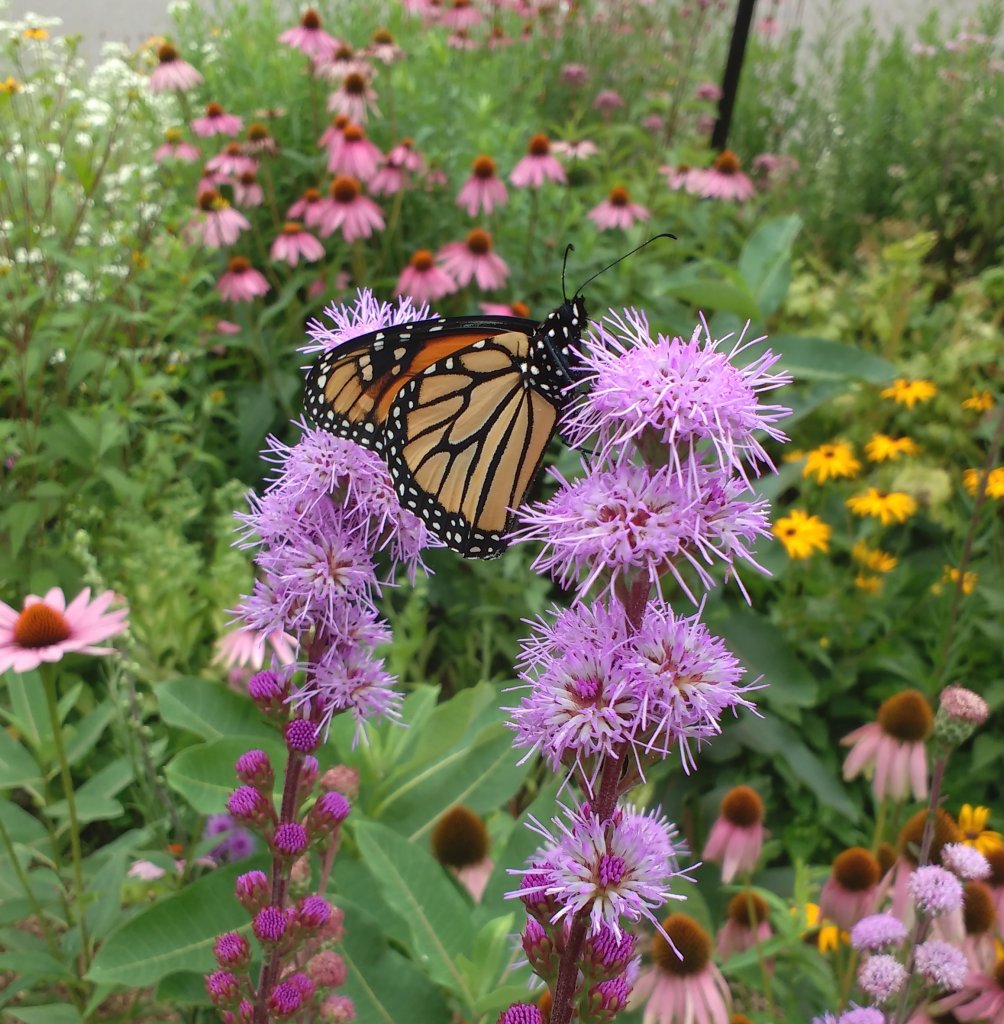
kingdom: Animalia
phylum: Arthropoda
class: Insecta
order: Lepidoptera
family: Nymphalidae
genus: Danaus
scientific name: Danaus plexippus
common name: Monarch
